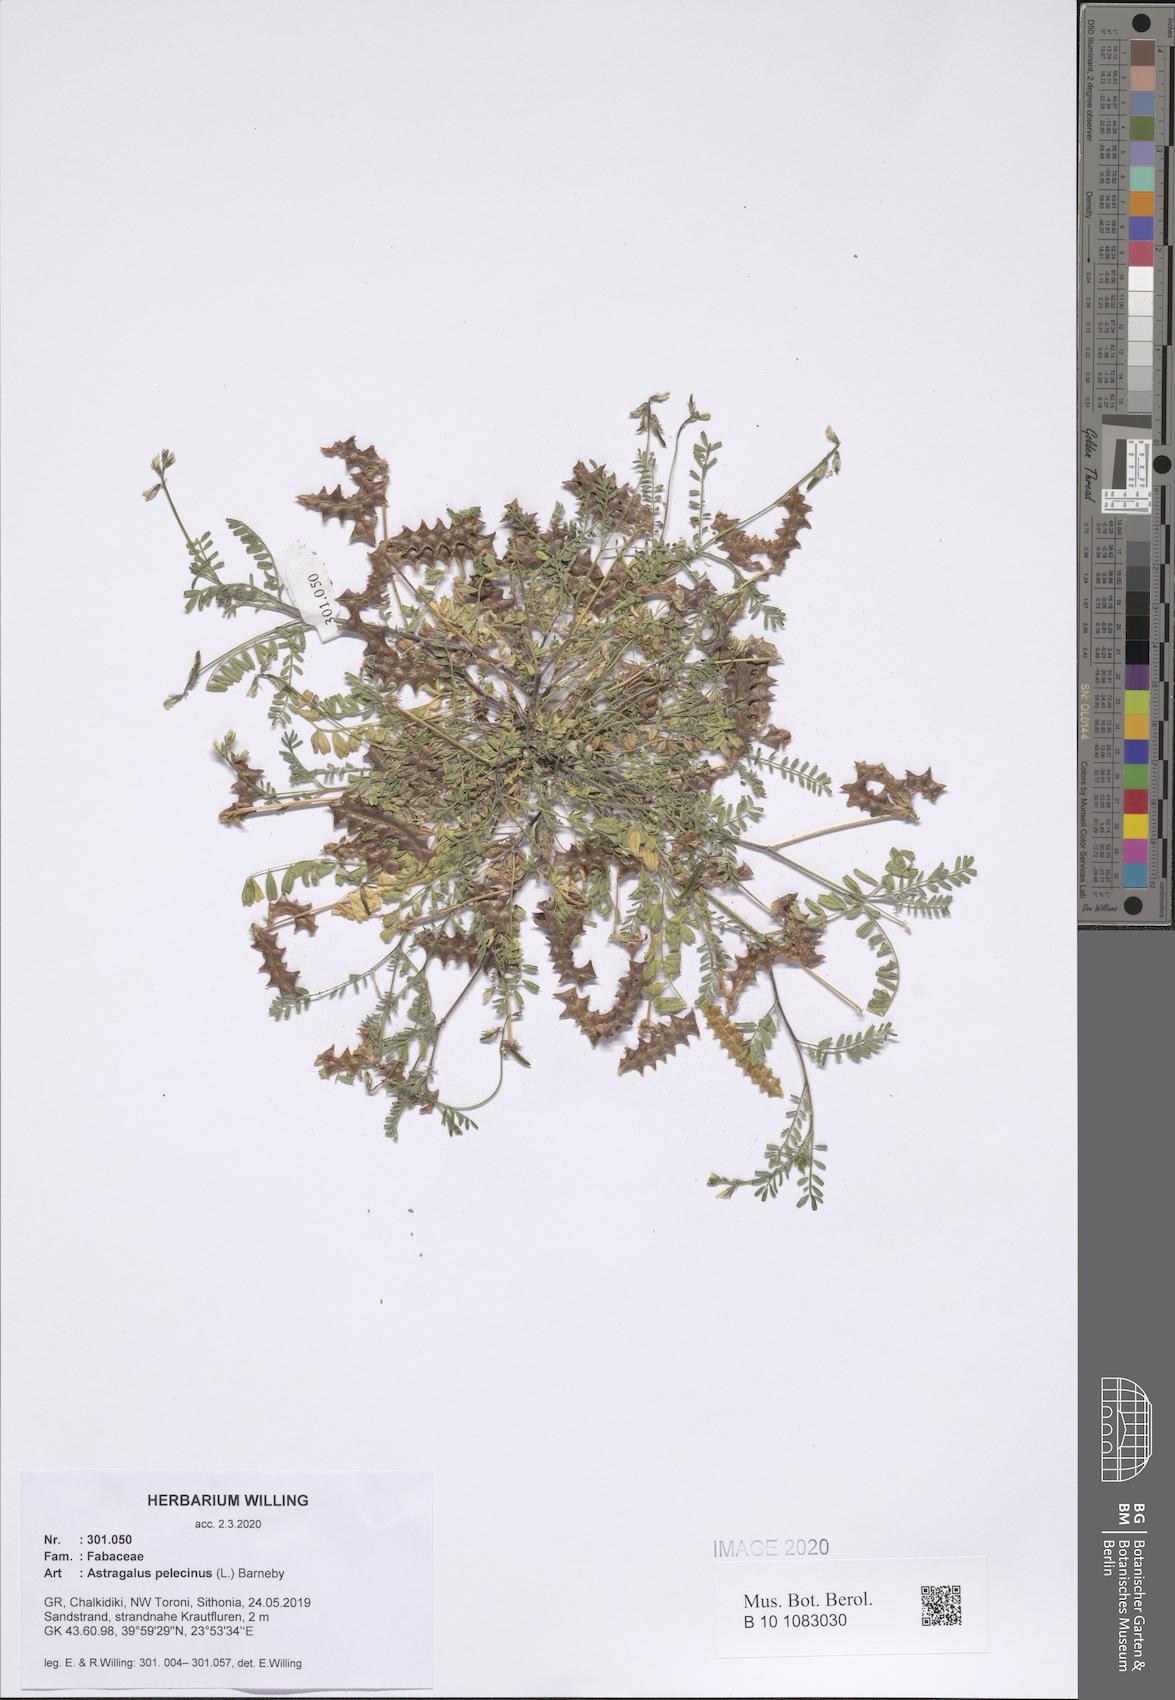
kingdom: Plantae
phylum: Tracheophyta
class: Magnoliopsida
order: Fabales
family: Fabaceae
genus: Biserrula
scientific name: Biserrula pelecinus
